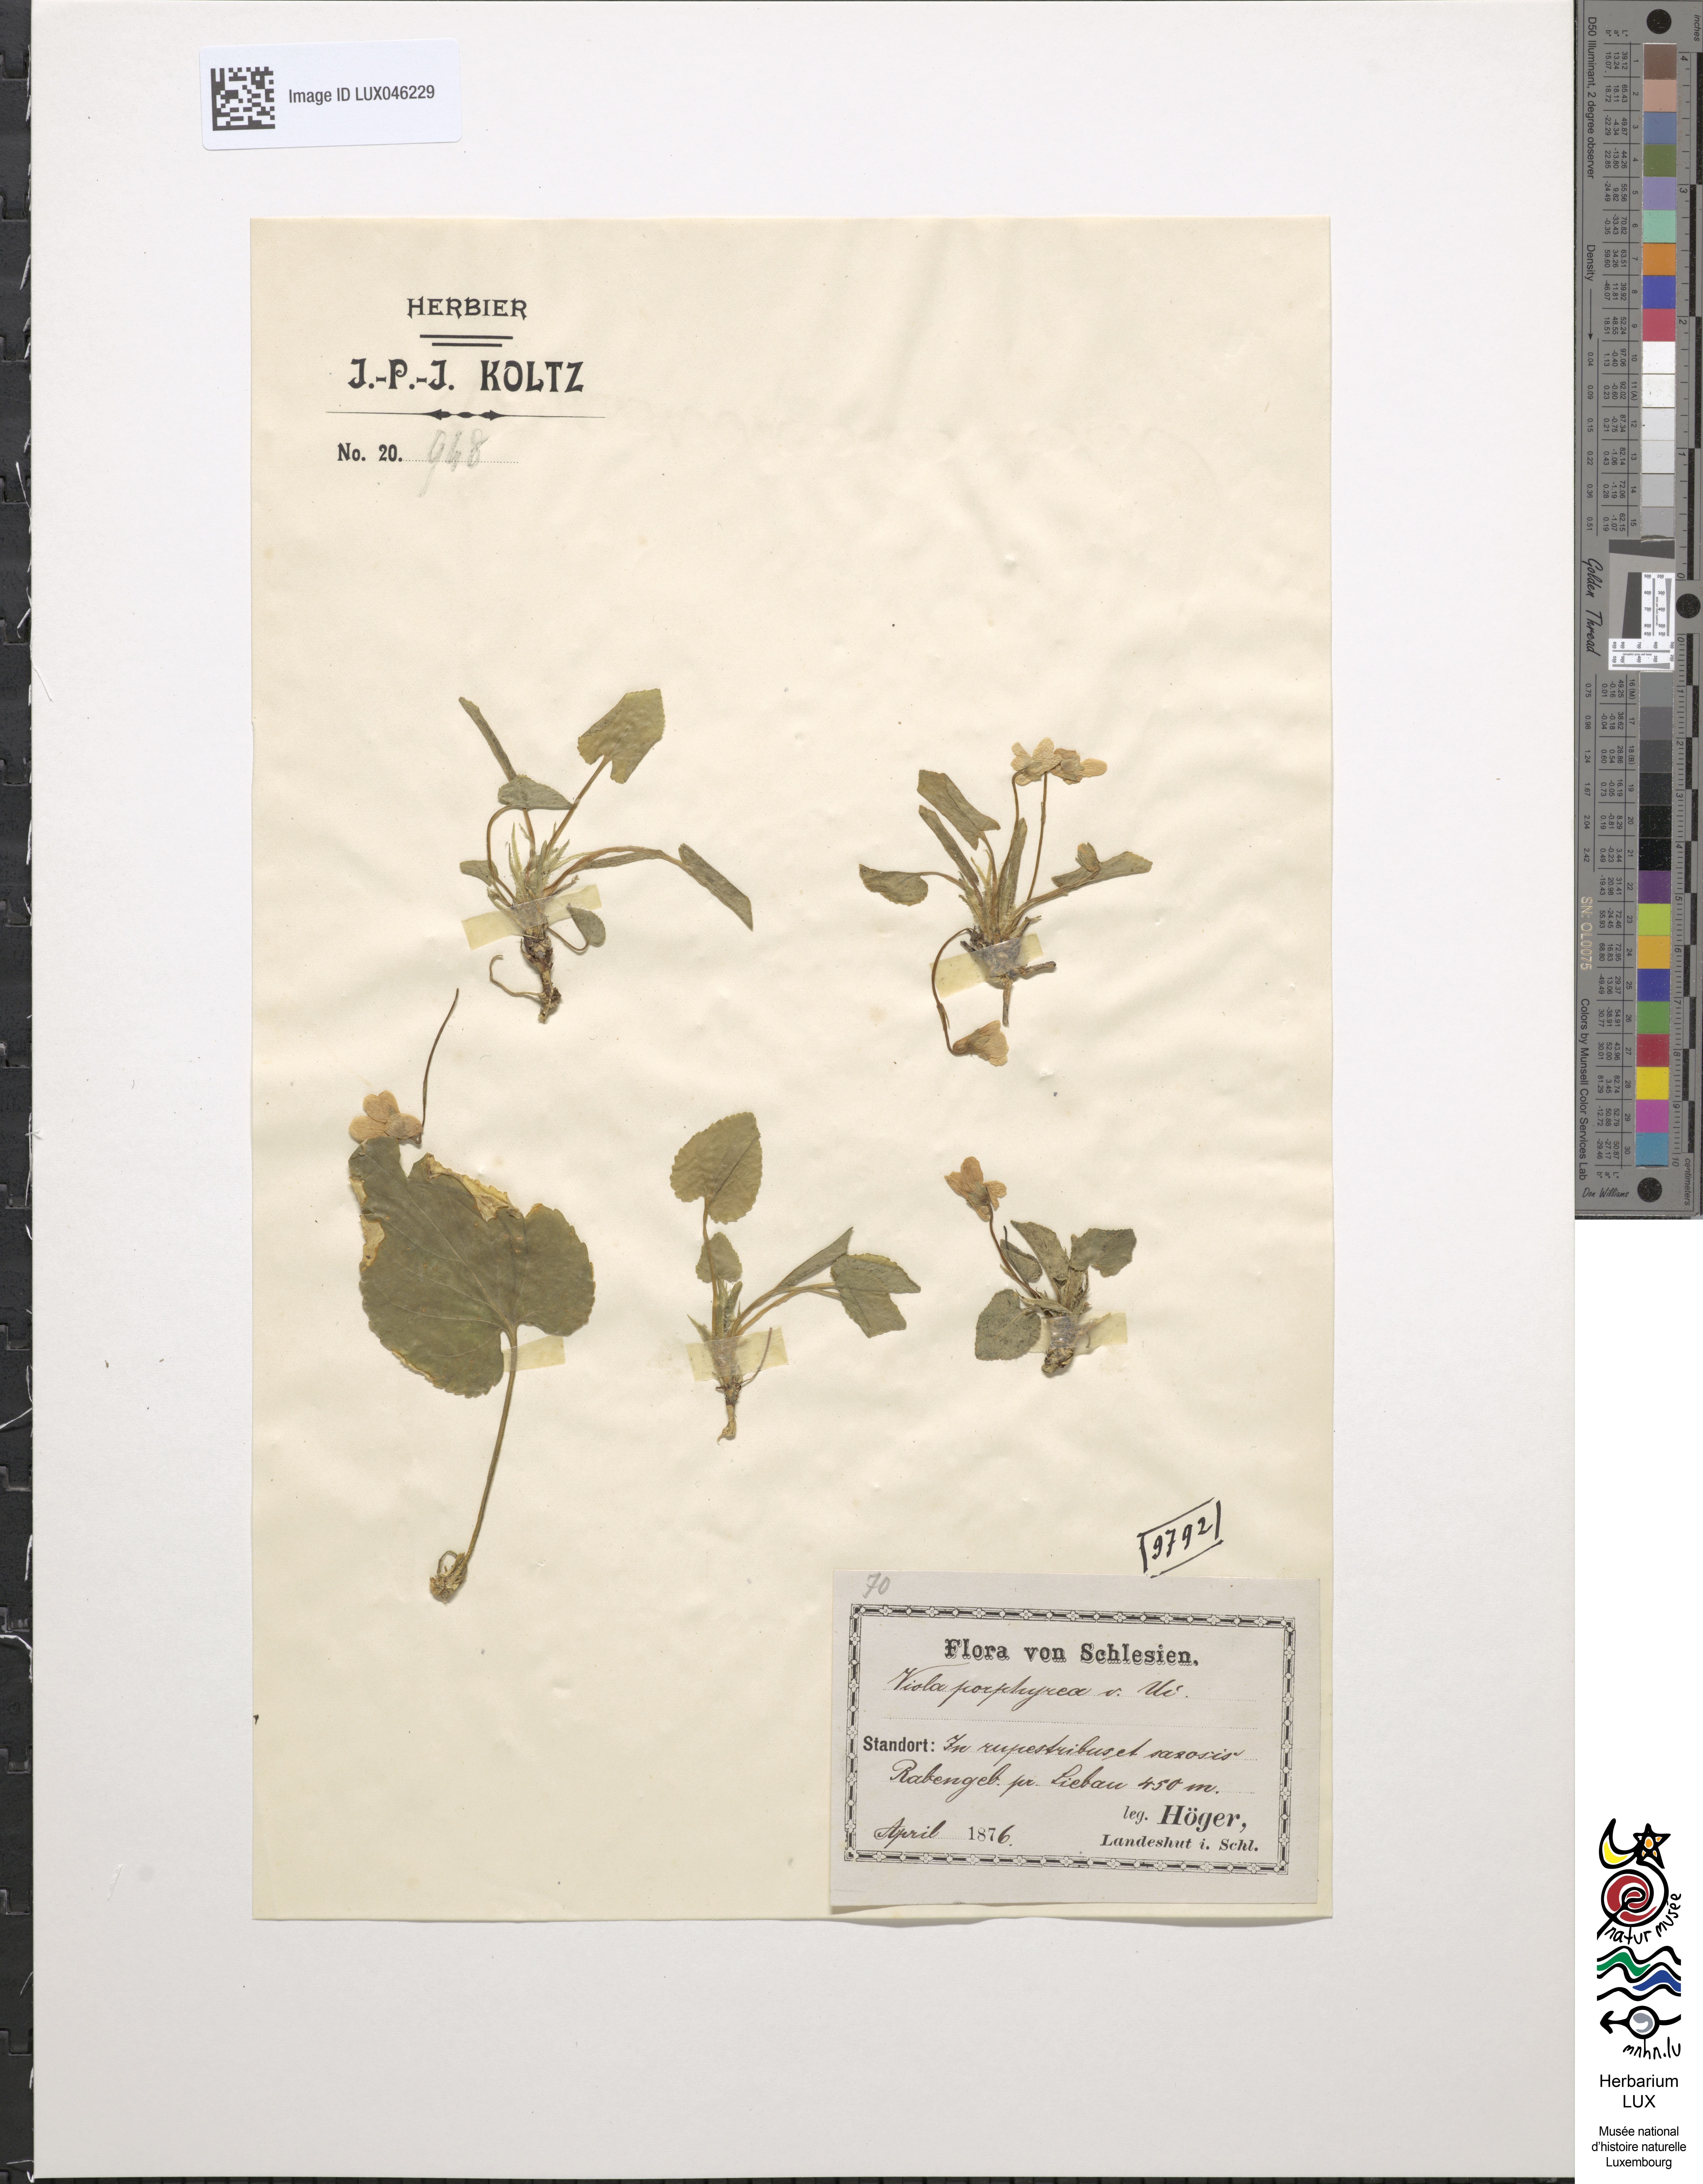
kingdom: Plantae
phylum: Tracheophyta
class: Magnoliopsida
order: Malpighiales
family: Violaceae
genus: Viola
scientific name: Viola collina
